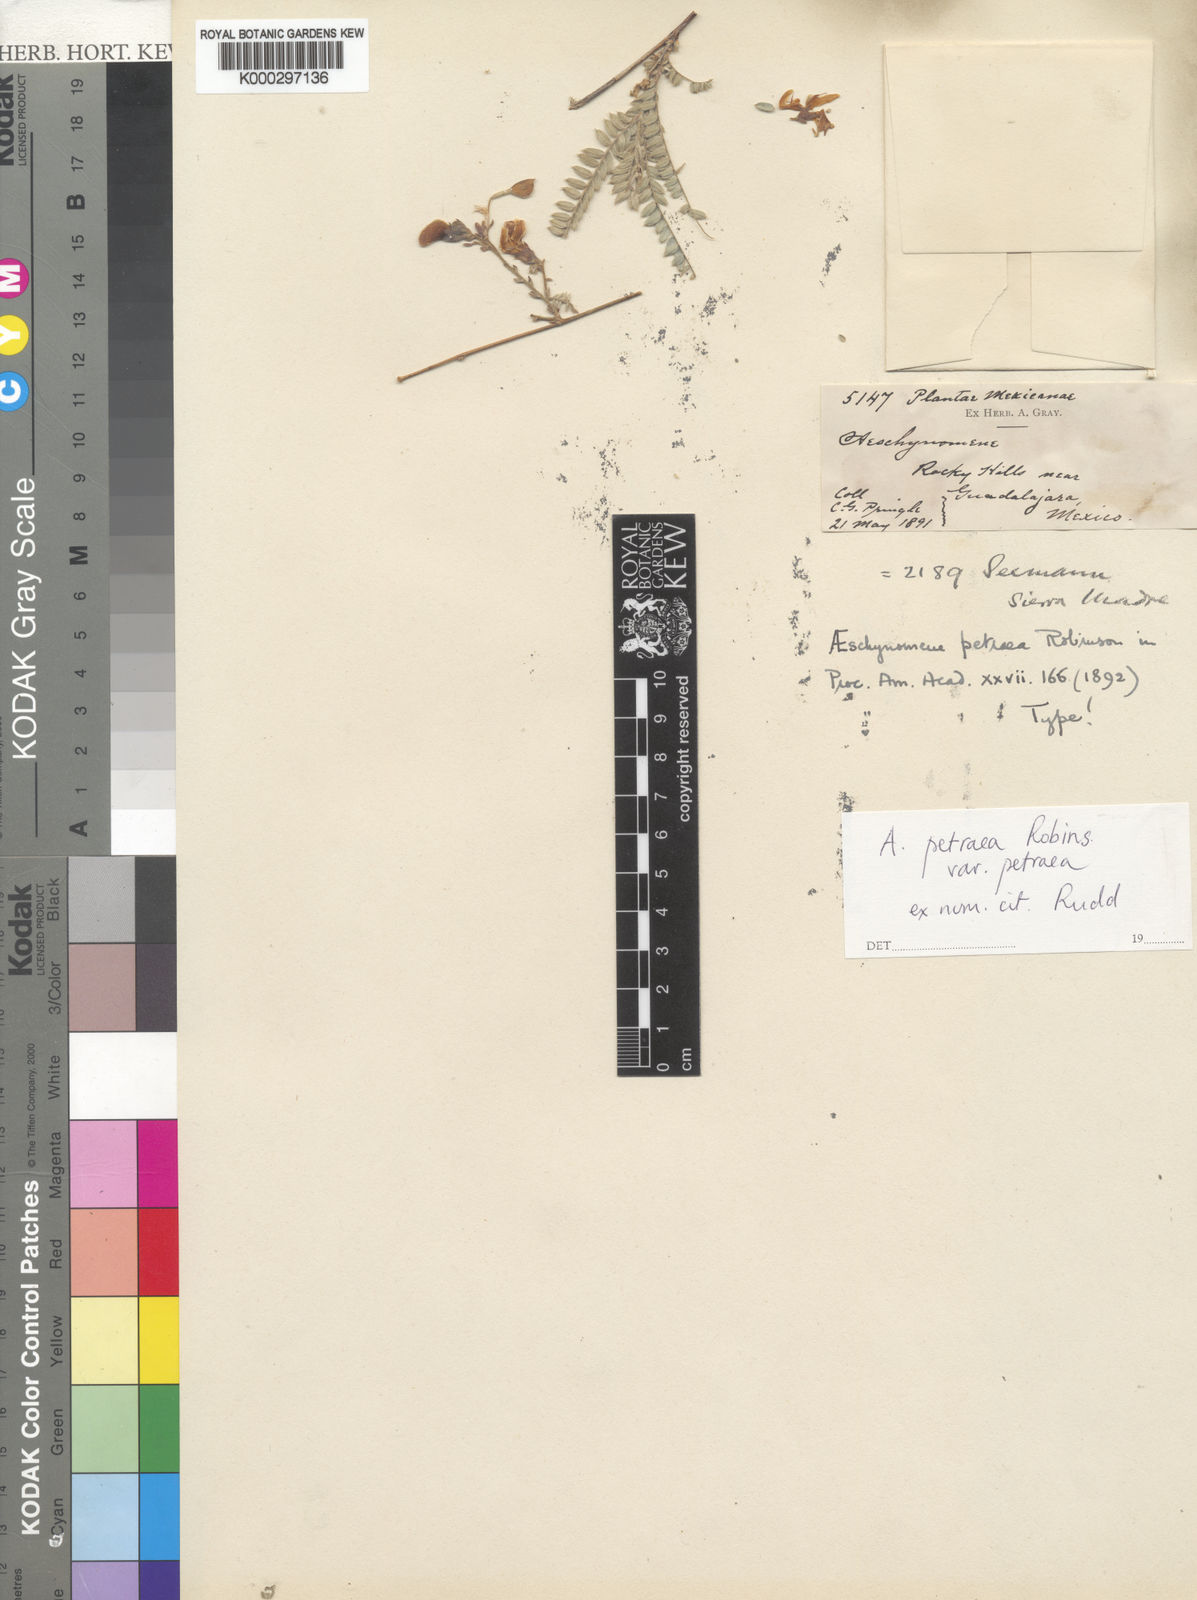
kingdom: Plantae
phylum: Tracheophyta
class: Magnoliopsida
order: Fabales
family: Fabaceae
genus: Ctenodon
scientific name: Ctenodon petraeus
